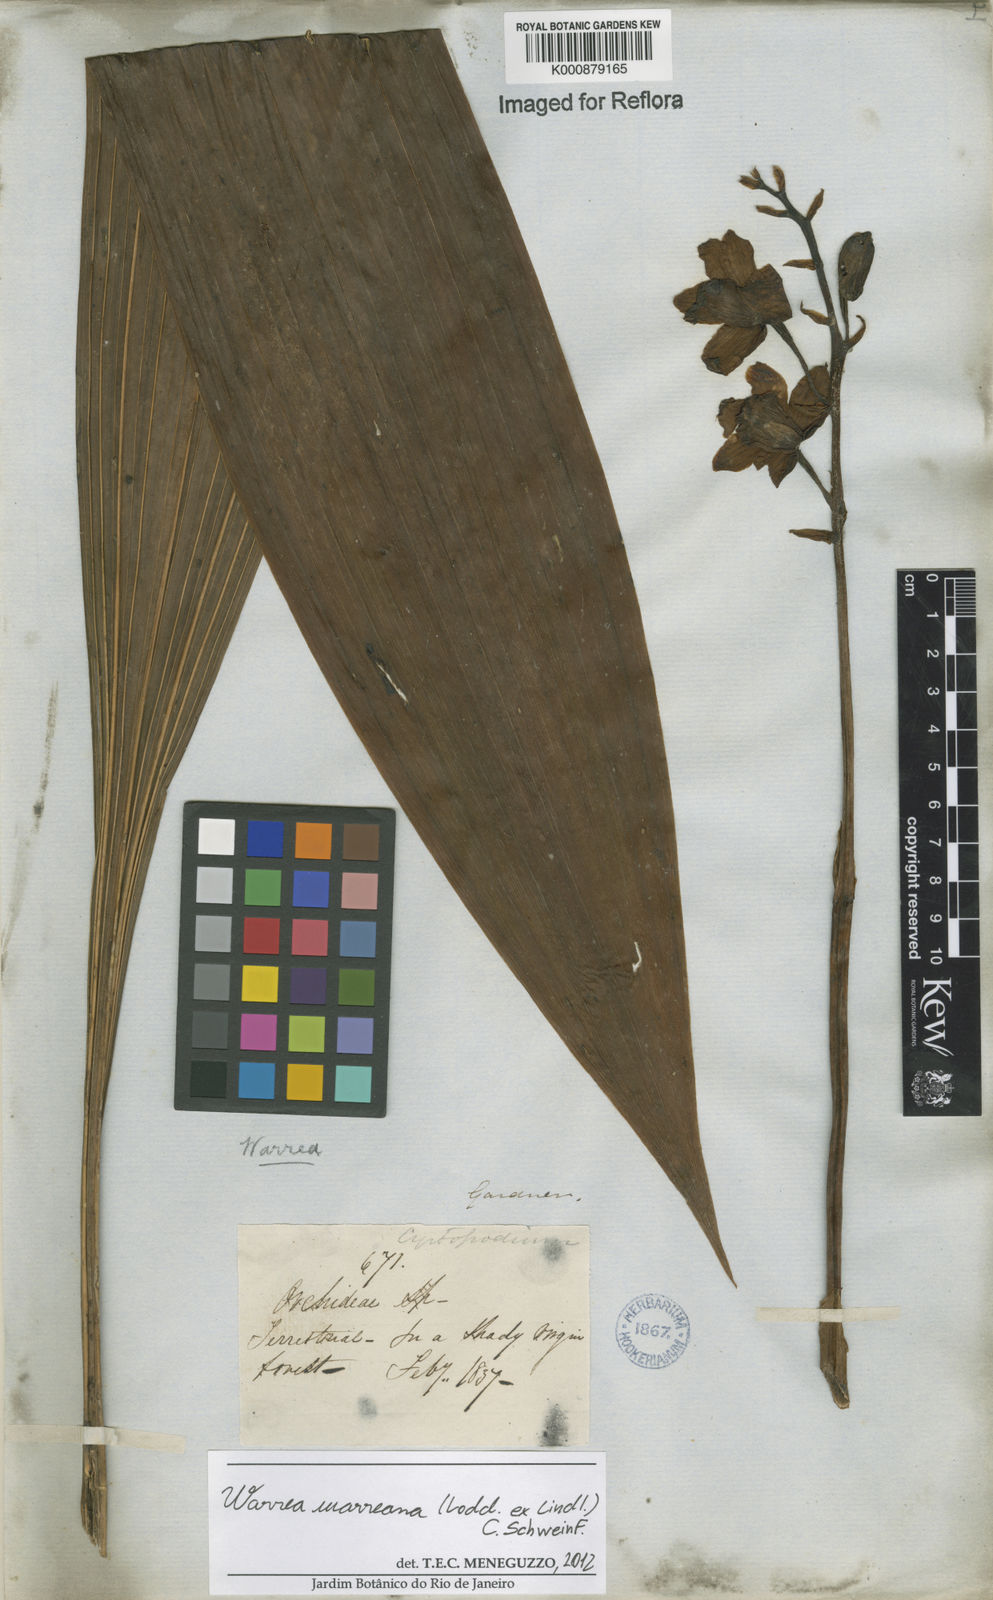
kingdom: Plantae
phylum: Tracheophyta
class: Liliopsida
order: Asparagales
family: Orchidaceae
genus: Warrea
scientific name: Warrea warreana
